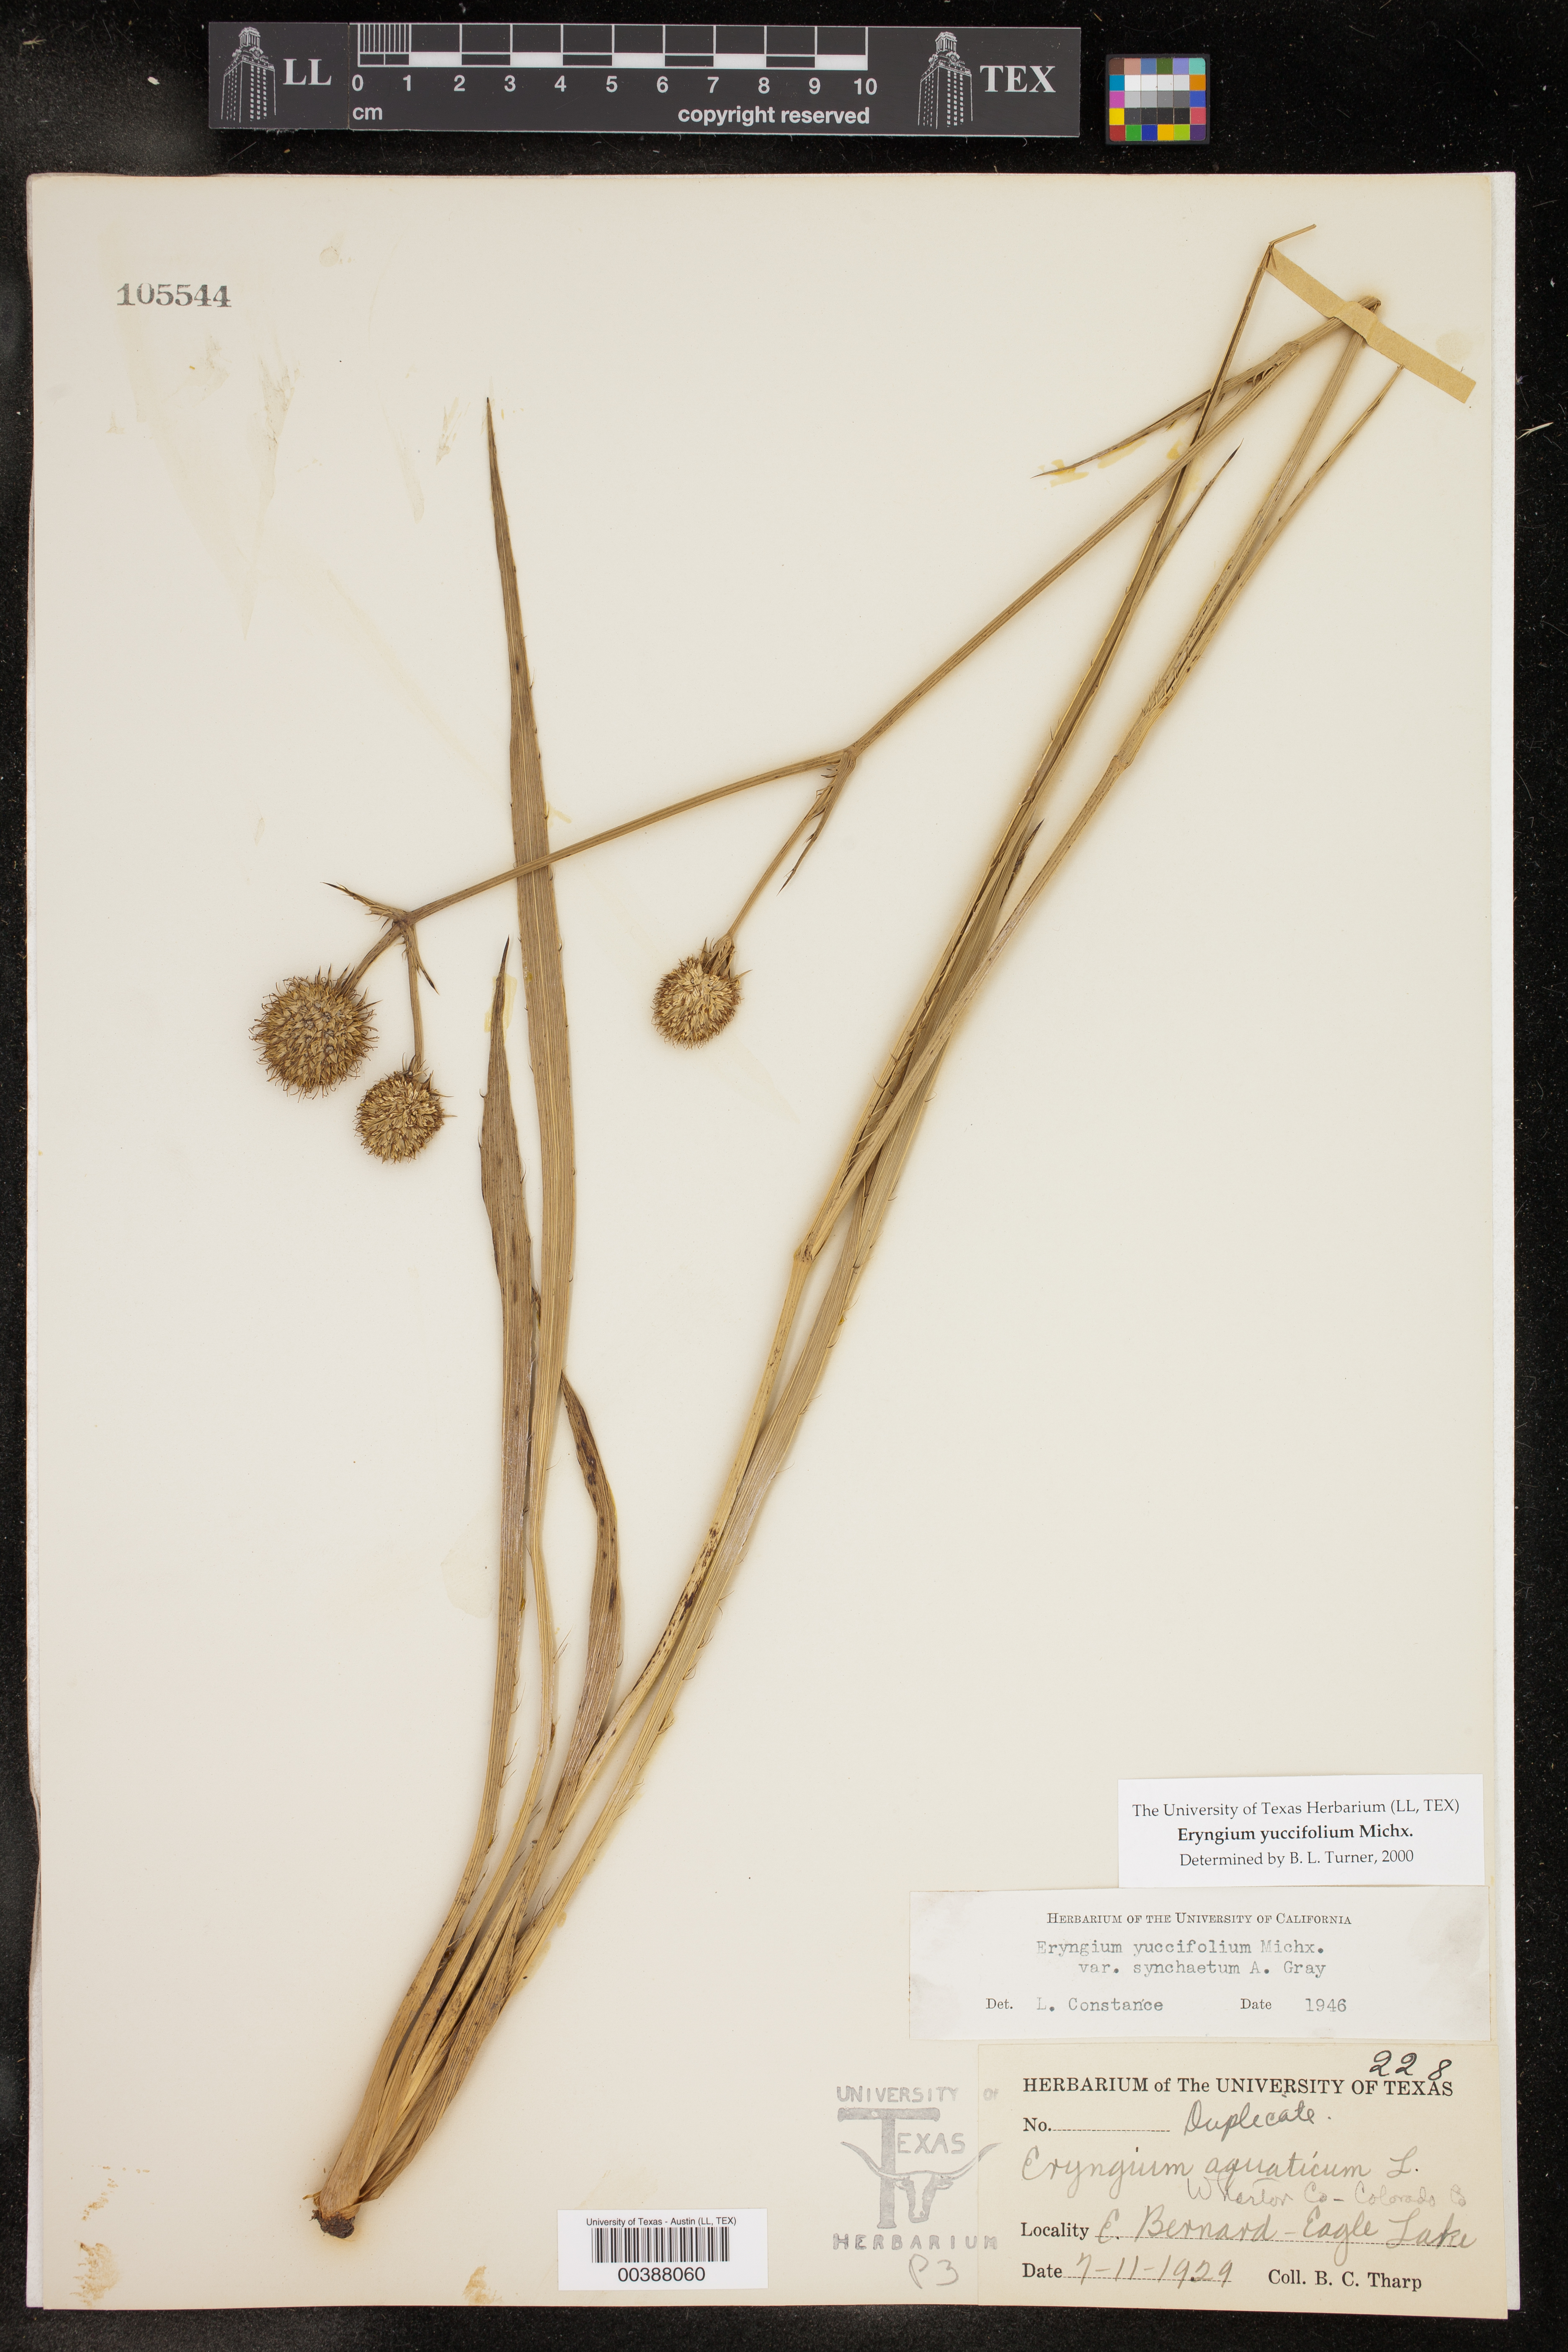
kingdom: Plantae
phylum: Tracheophyta
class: Magnoliopsida
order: Apiales
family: Apiaceae
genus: Eryngium
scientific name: Eryngium yuccifolium
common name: Button eryngo
